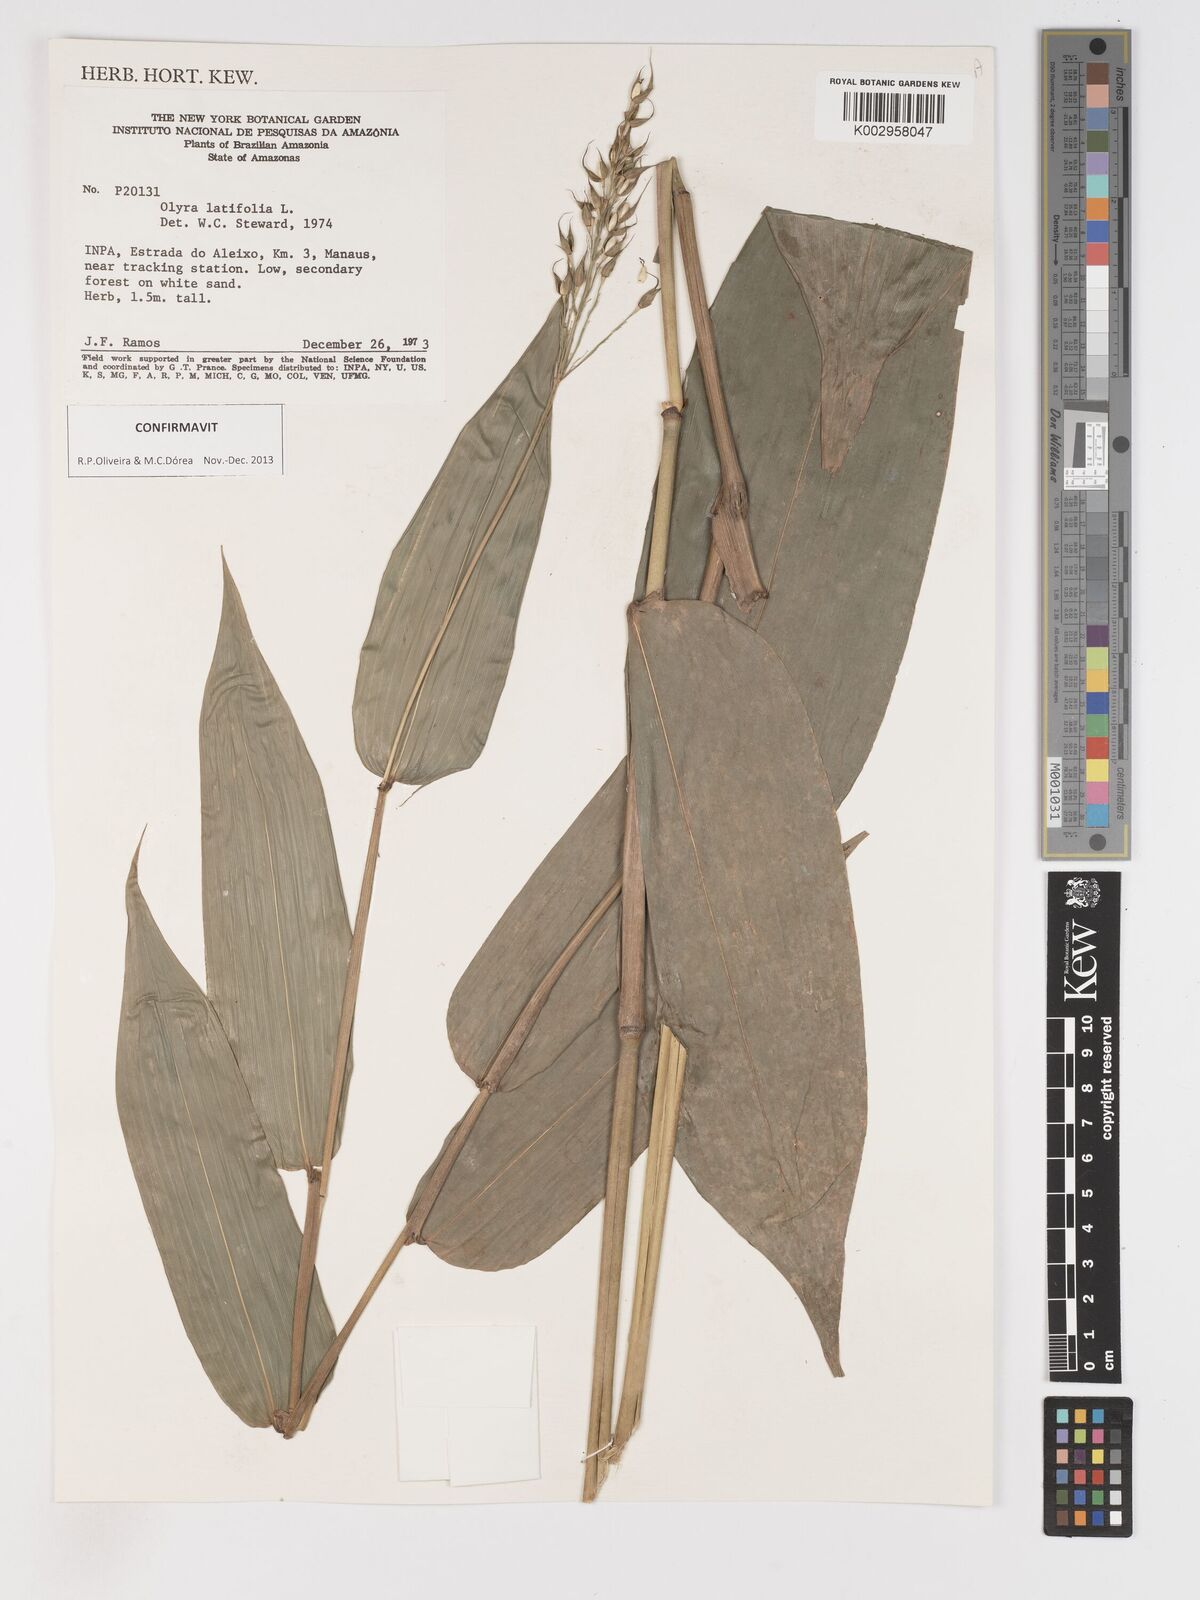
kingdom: Plantae
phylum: Tracheophyta
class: Liliopsida
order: Poales
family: Poaceae
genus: Olyra
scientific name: Olyra latifolia
